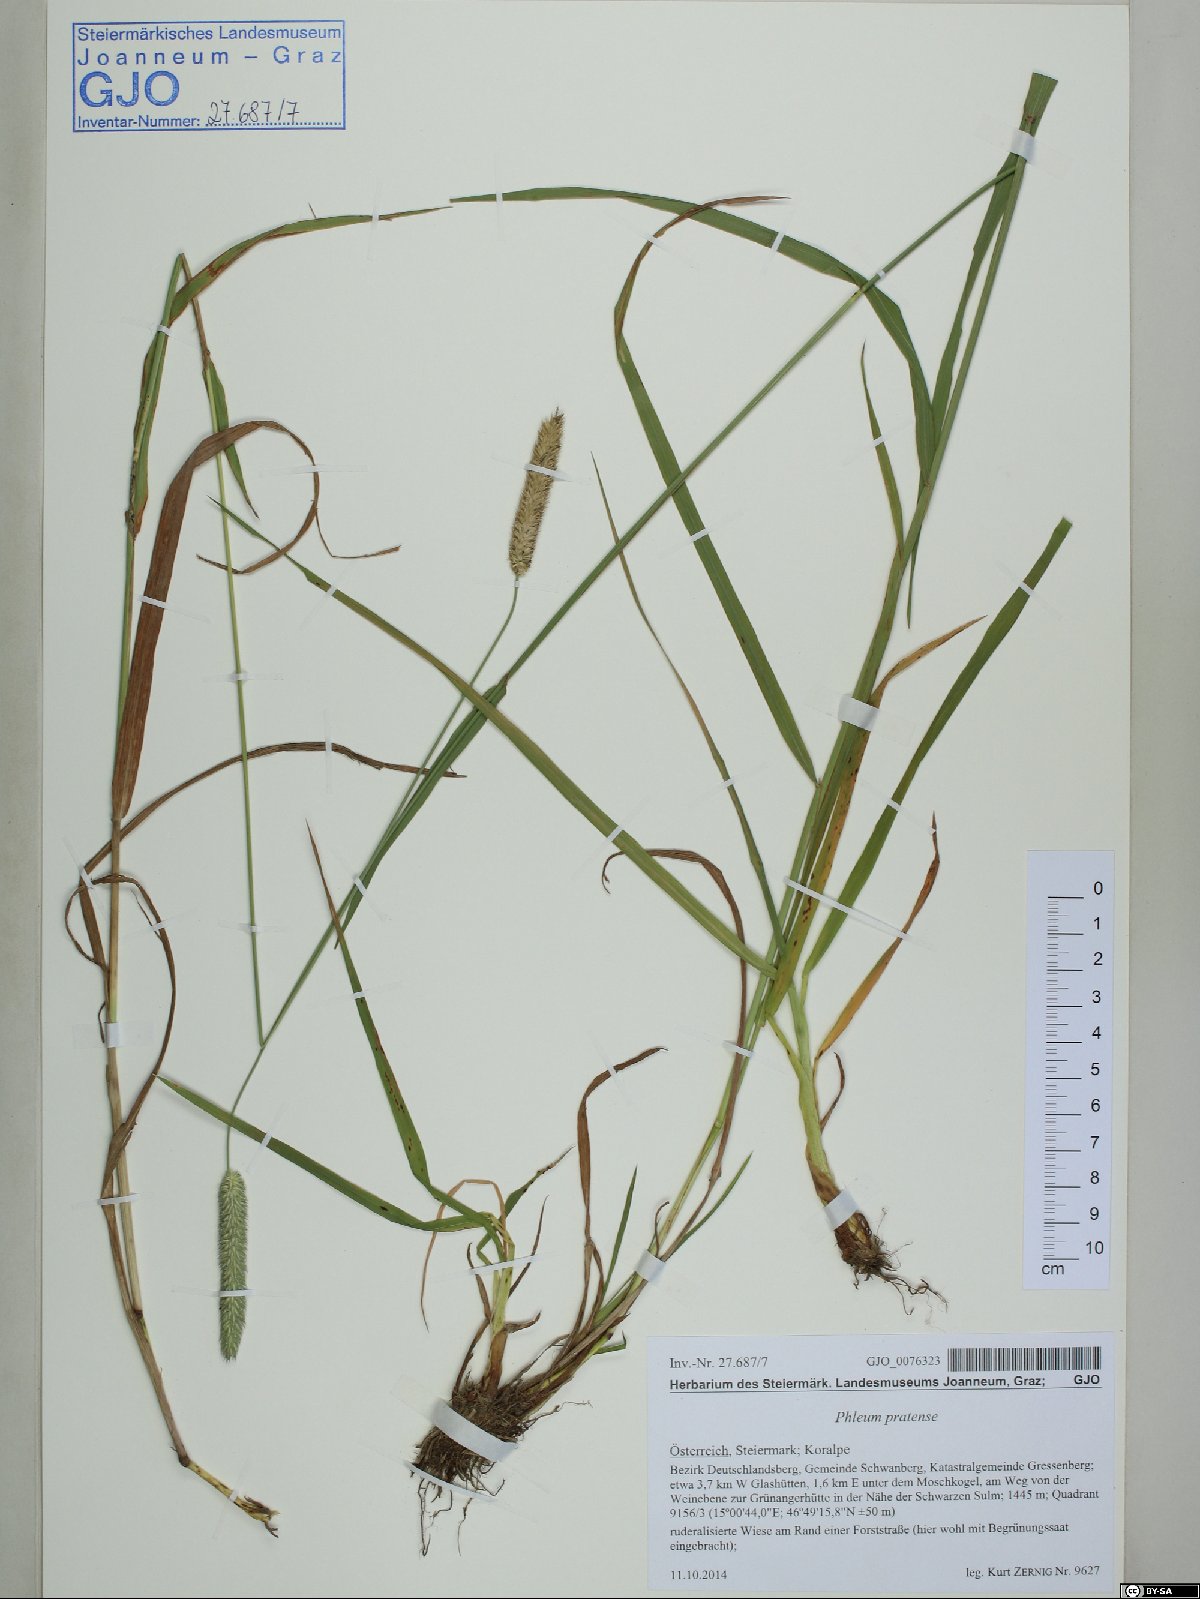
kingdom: Plantae
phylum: Tracheophyta
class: Liliopsida
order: Poales
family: Poaceae
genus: Phleum
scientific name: Phleum pratense
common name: Timothy grass
